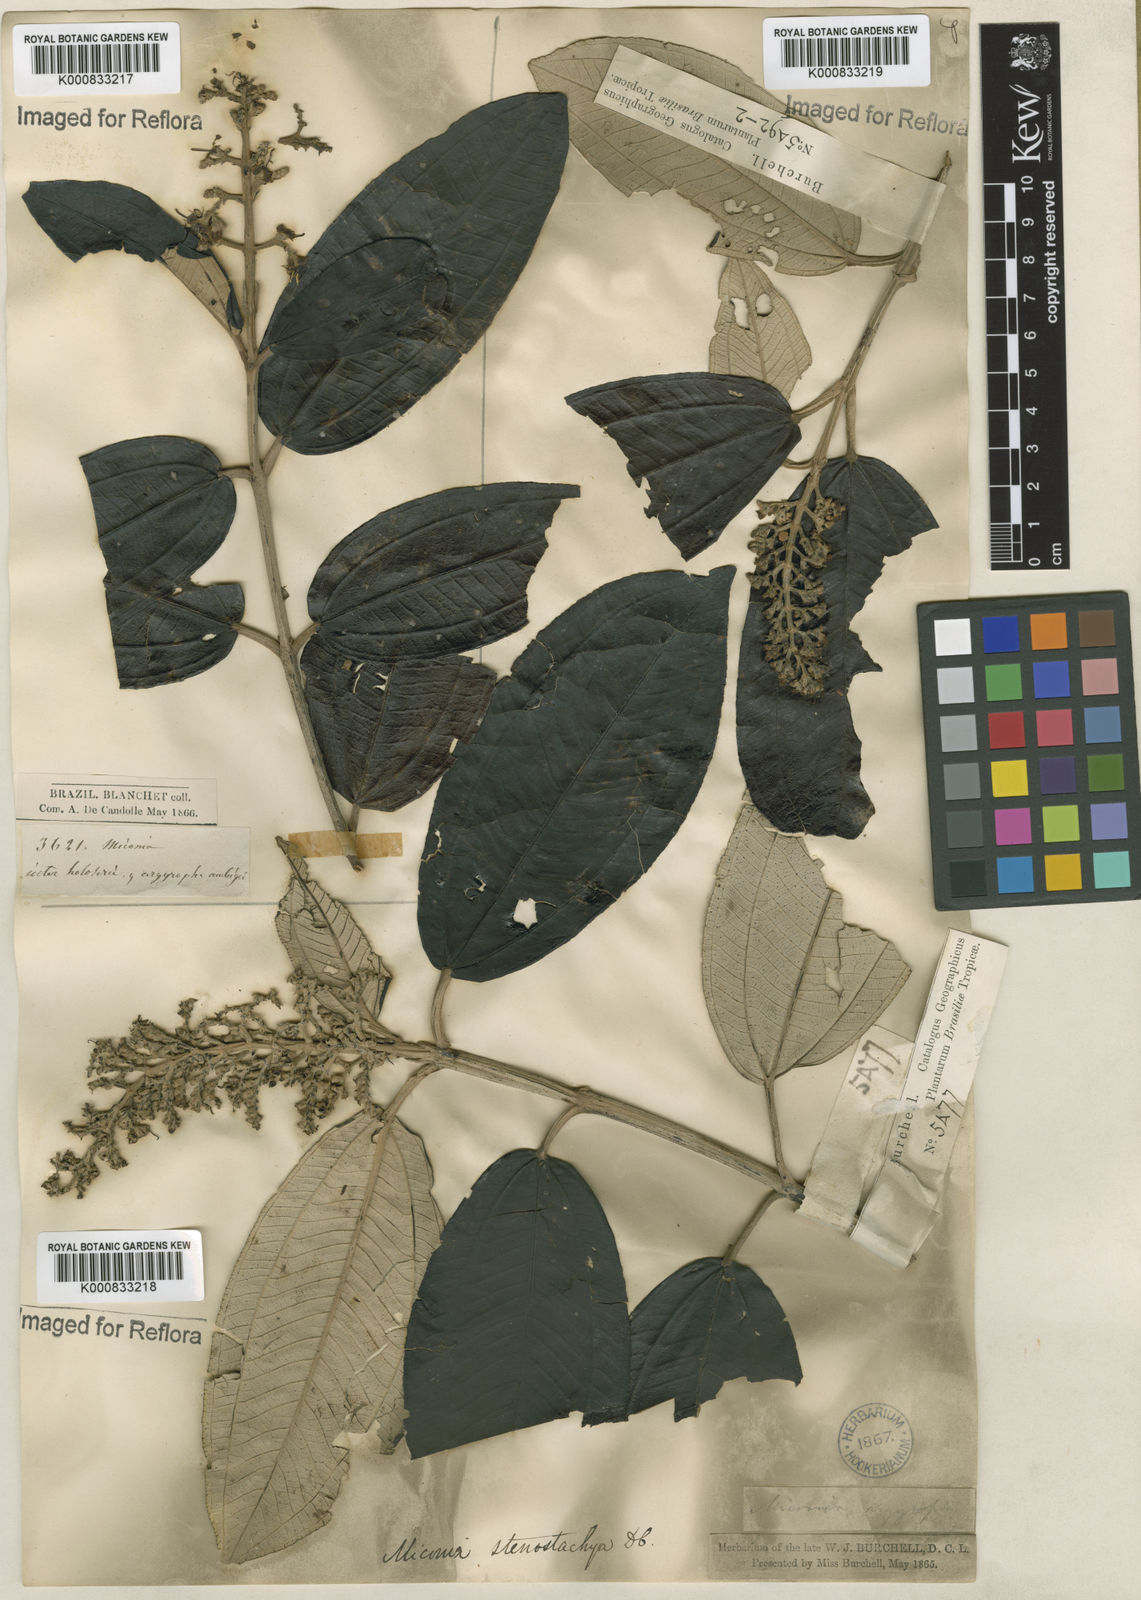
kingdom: Plantae
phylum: Tracheophyta
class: Magnoliopsida
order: Myrtales
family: Melastomataceae
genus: Miconia
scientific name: Miconia stenostachya
